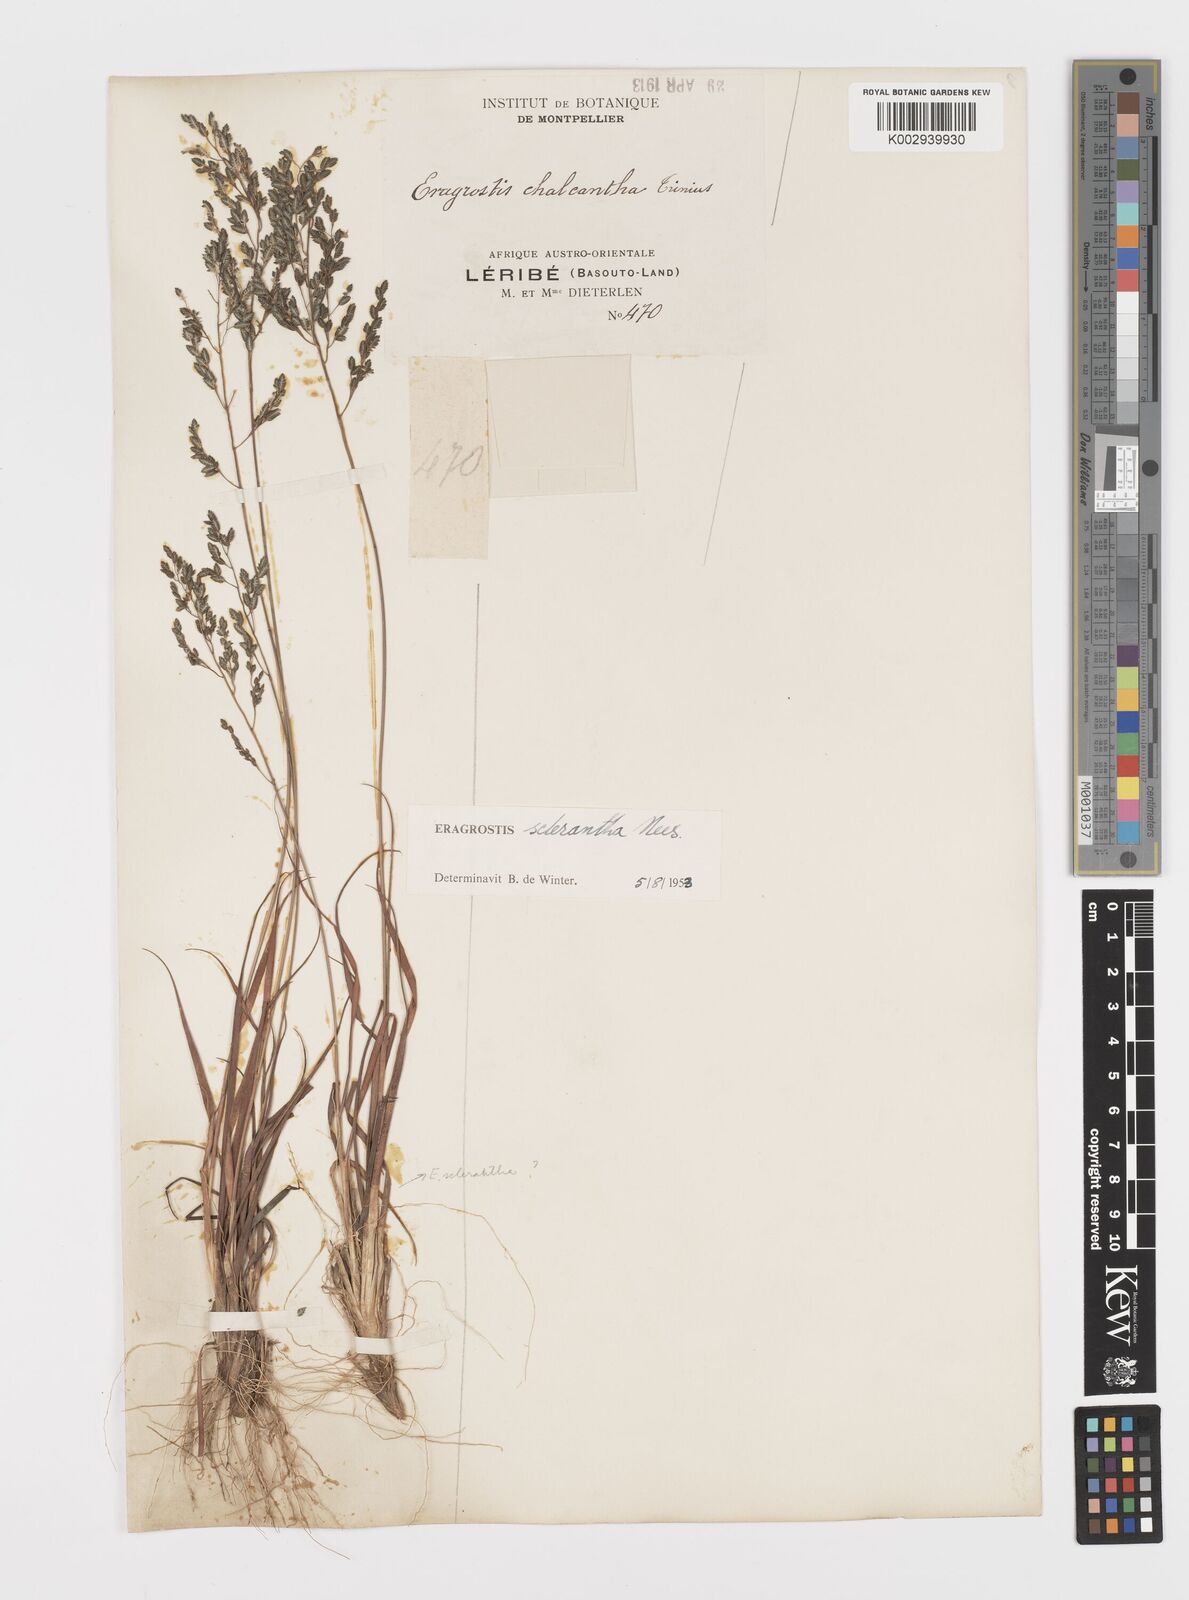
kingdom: Plantae
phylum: Tracheophyta
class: Liliopsida
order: Poales
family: Poaceae
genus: Eragrostis
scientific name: Eragrostis sclerantha
